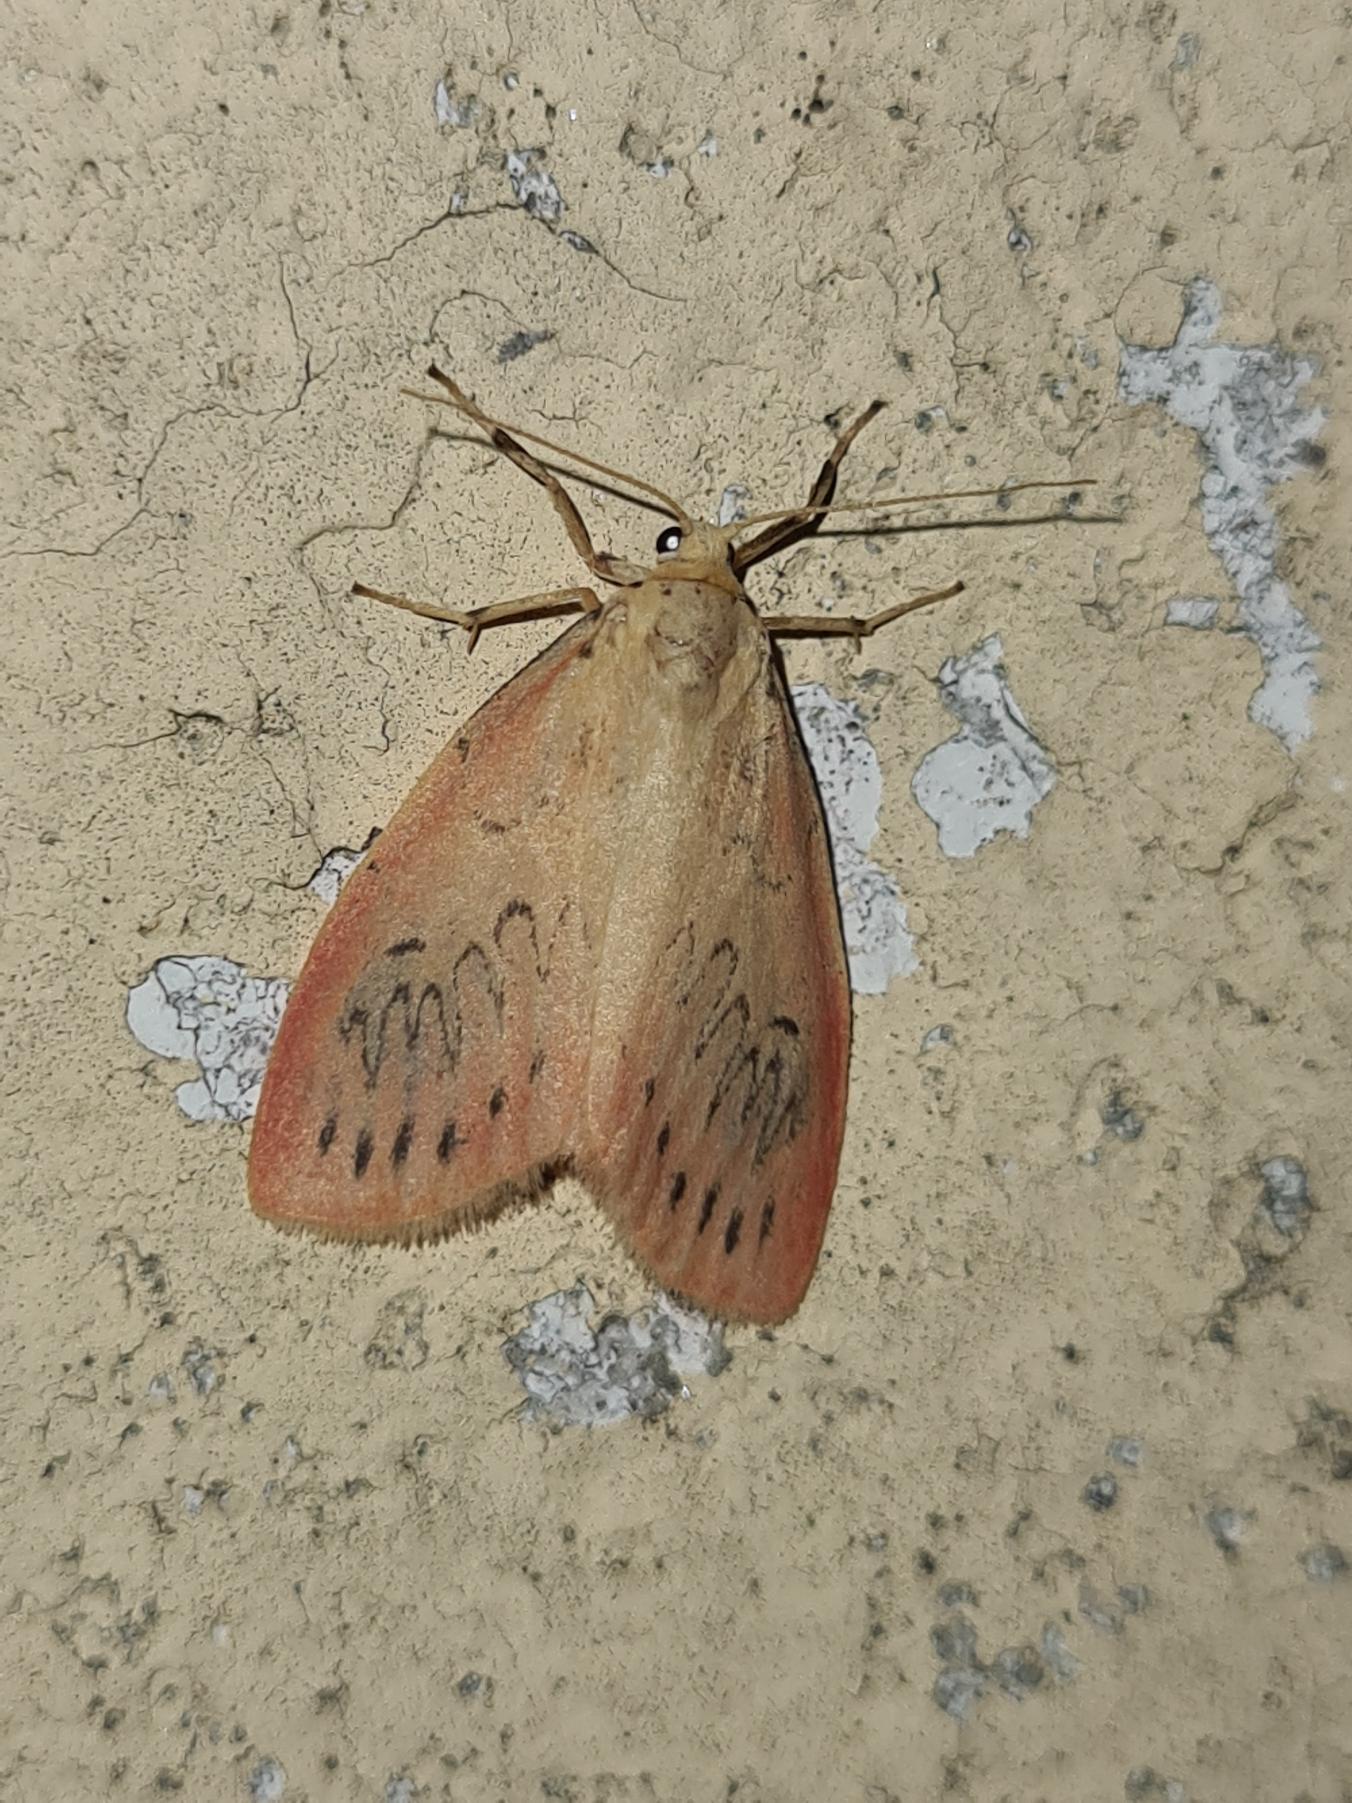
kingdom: Animalia
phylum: Arthropoda
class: Insecta
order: Lepidoptera
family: Erebidae
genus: Miltochrista
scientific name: Miltochrista miniata
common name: Rosenbjørn
